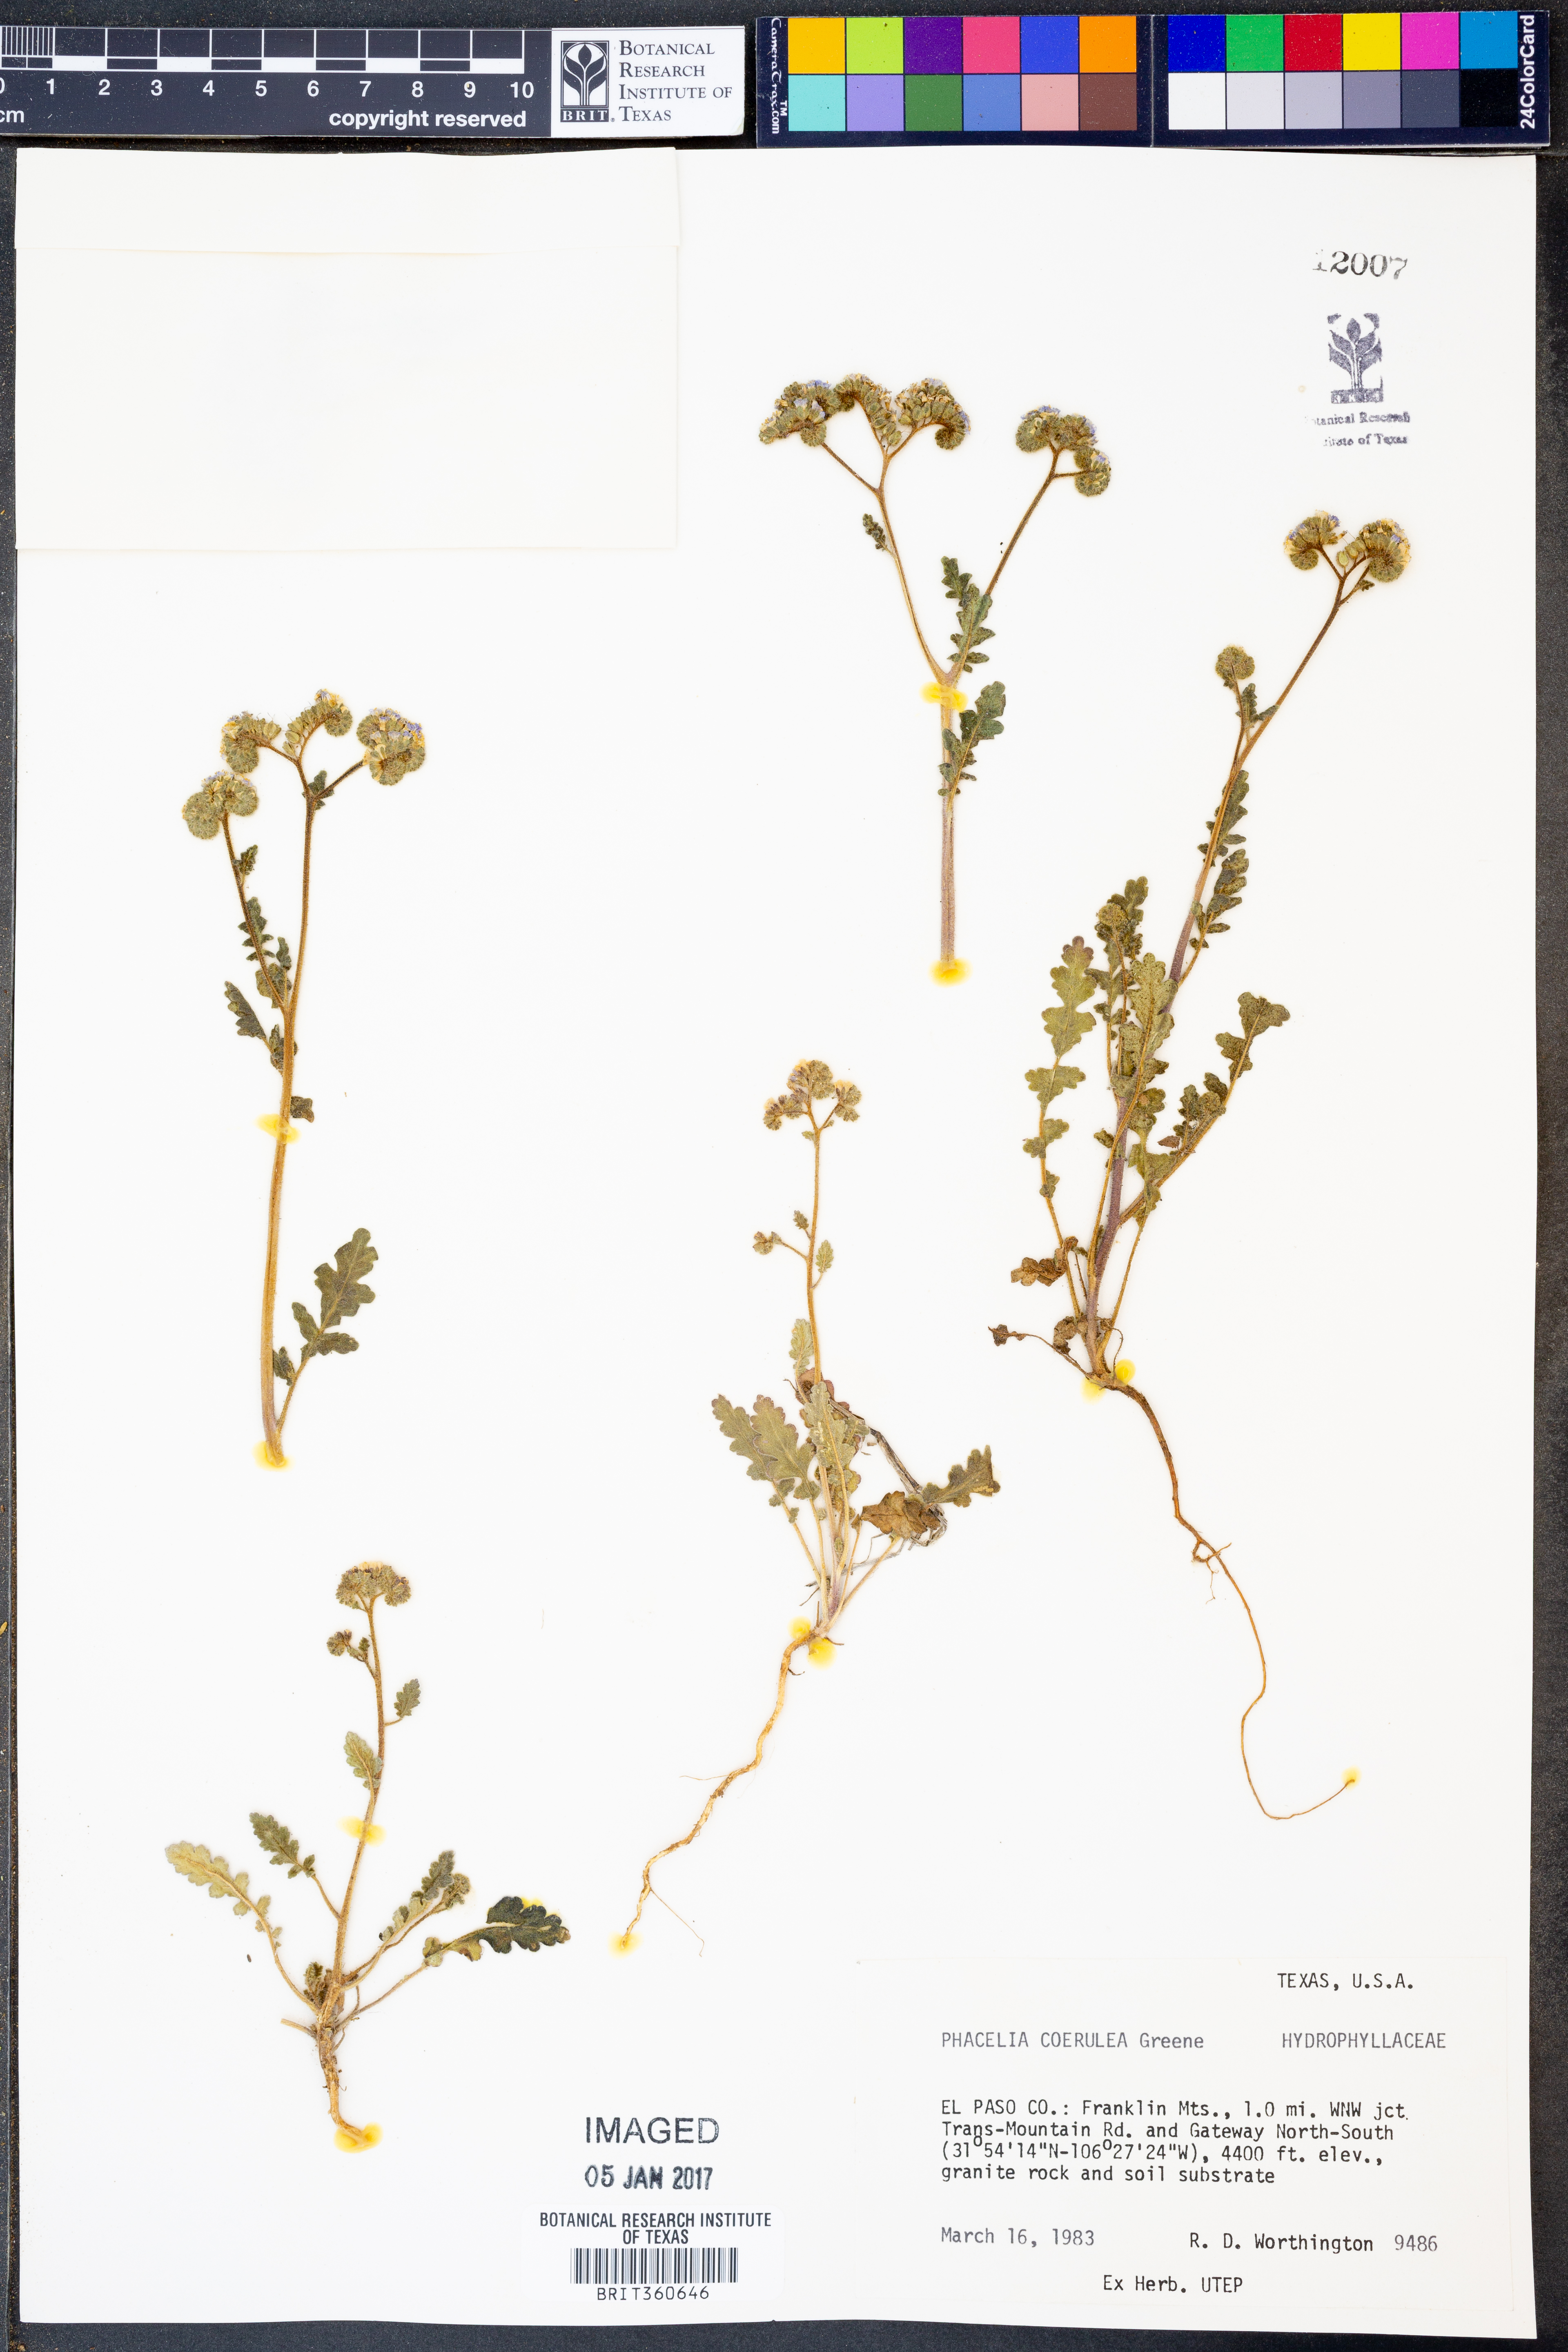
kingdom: Plantae
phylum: Tracheophyta
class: Magnoliopsida
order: Boraginales
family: Hydrophyllaceae
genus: Phacelia
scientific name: Phacelia coerulea
